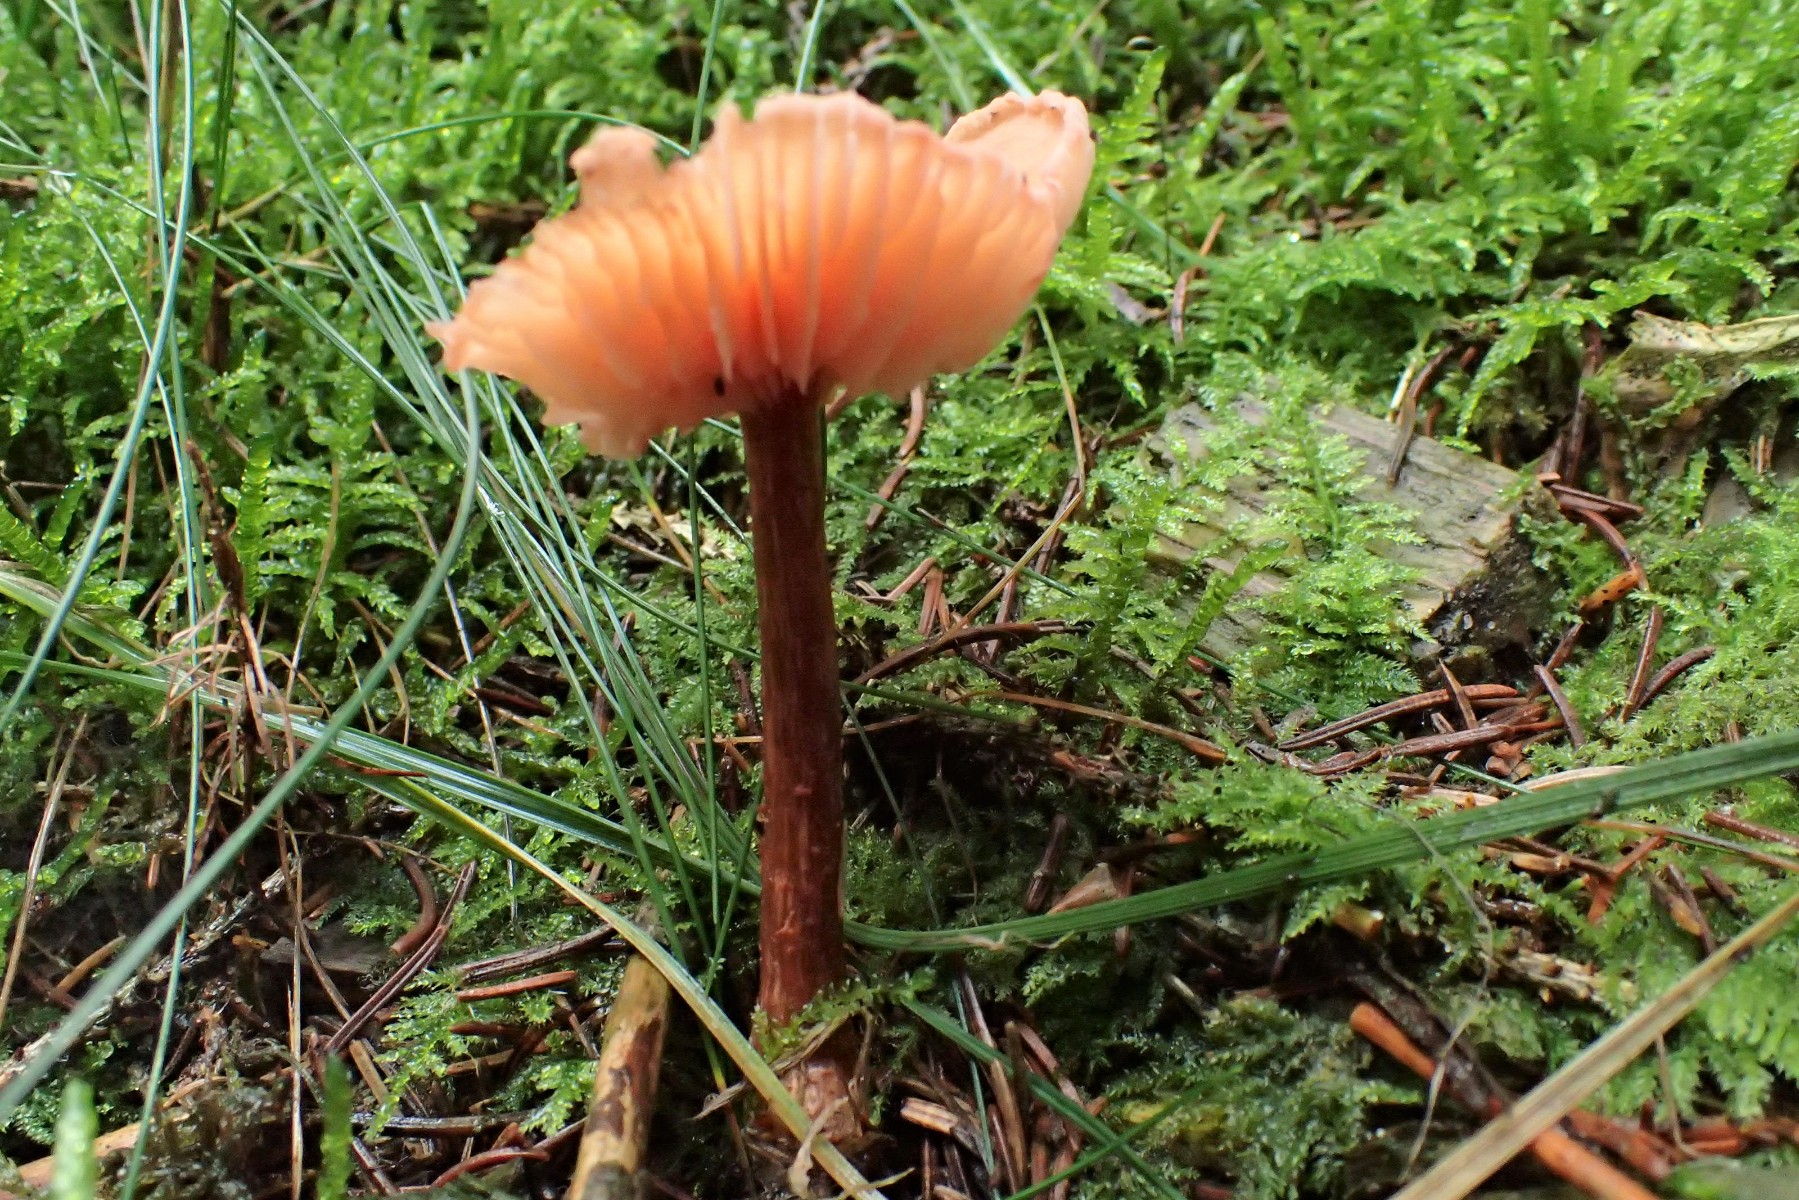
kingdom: Fungi
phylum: Basidiomycota
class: Agaricomycetes
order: Agaricales
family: Hydnangiaceae
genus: Laccaria
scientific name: Laccaria proxima
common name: stor ametysthat
